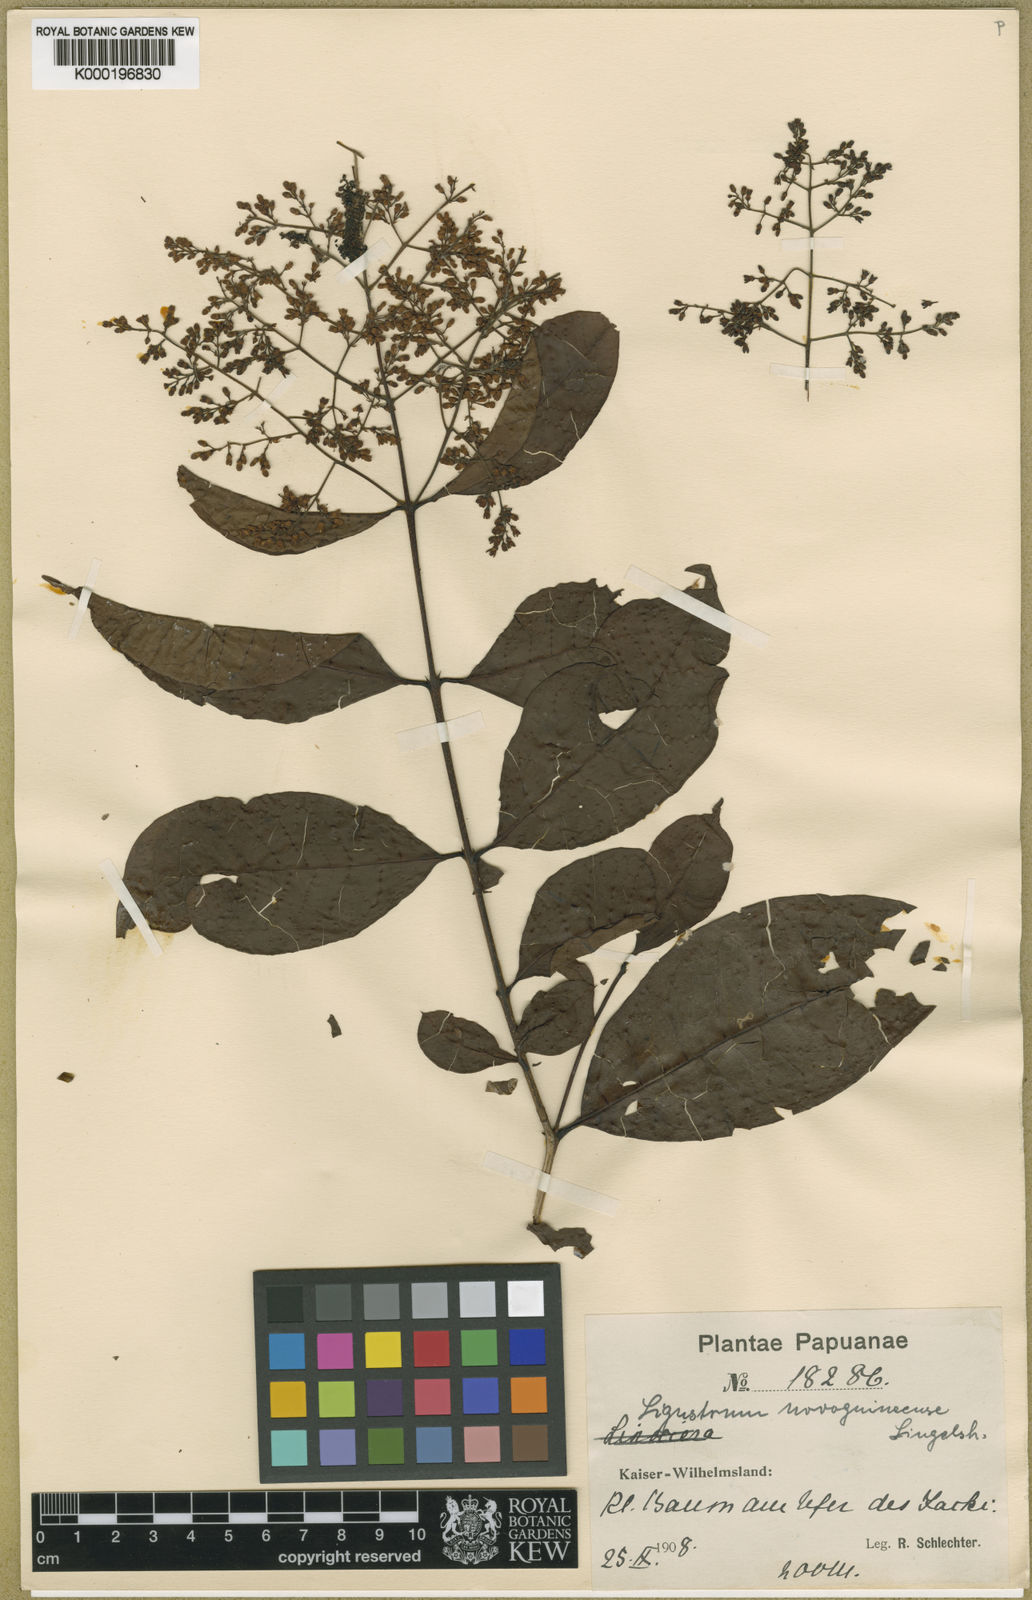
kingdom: Plantae
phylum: Tracheophyta
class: Magnoliopsida
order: Lamiales
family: Oleaceae
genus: Ligustrum
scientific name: Ligustrum novoguineense
